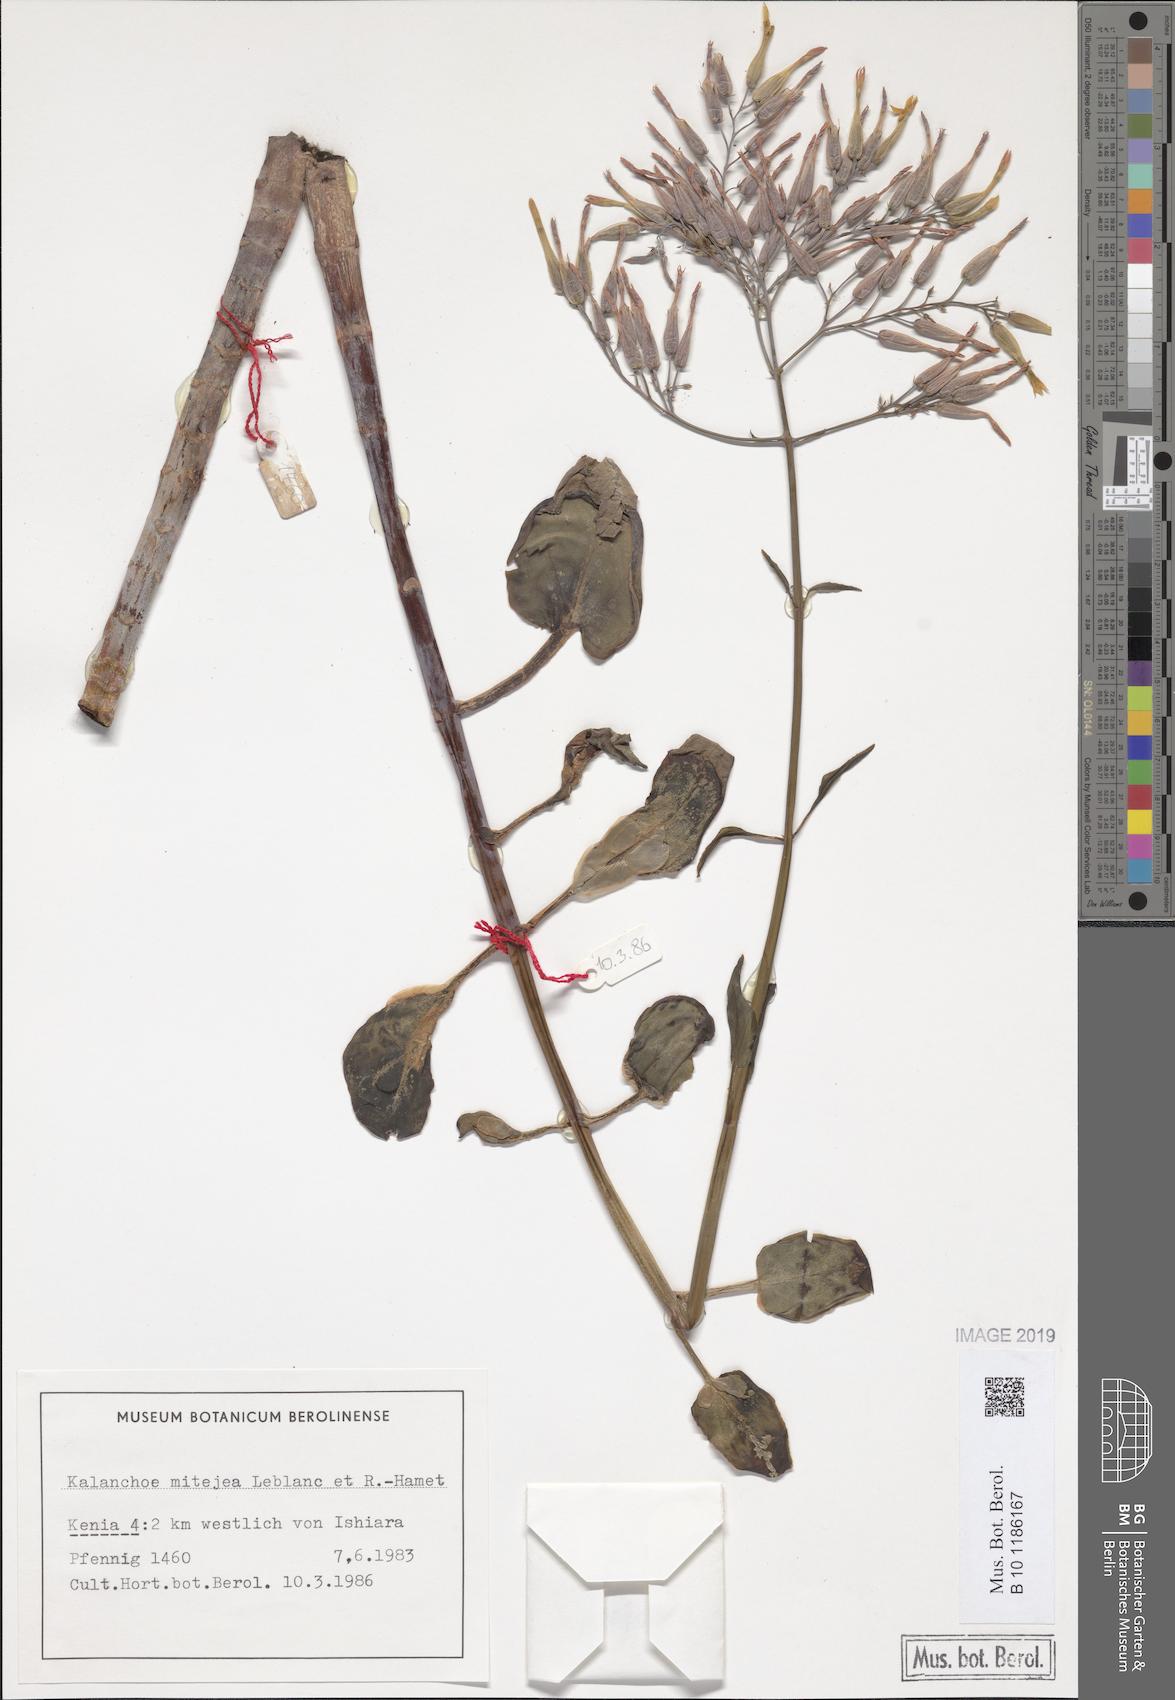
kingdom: Plantae
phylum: Tracheophyta
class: Magnoliopsida
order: Saxifragales
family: Crassulaceae
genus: Kalanchoe
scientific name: Kalanchoe mitejea
